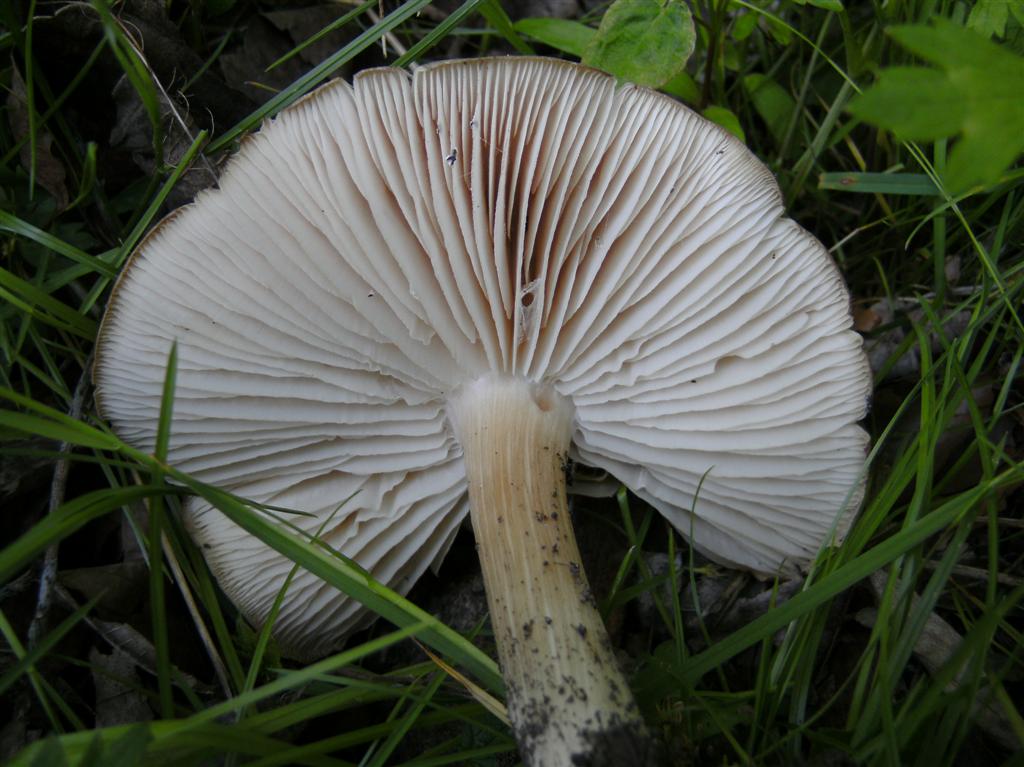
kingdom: Fungi
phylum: Basidiomycota
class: Agaricomycetes
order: Agaricales
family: Tricholomataceae
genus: Megacollybia
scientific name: Megacollybia platyphylla
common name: bredbladet væbnerhat
